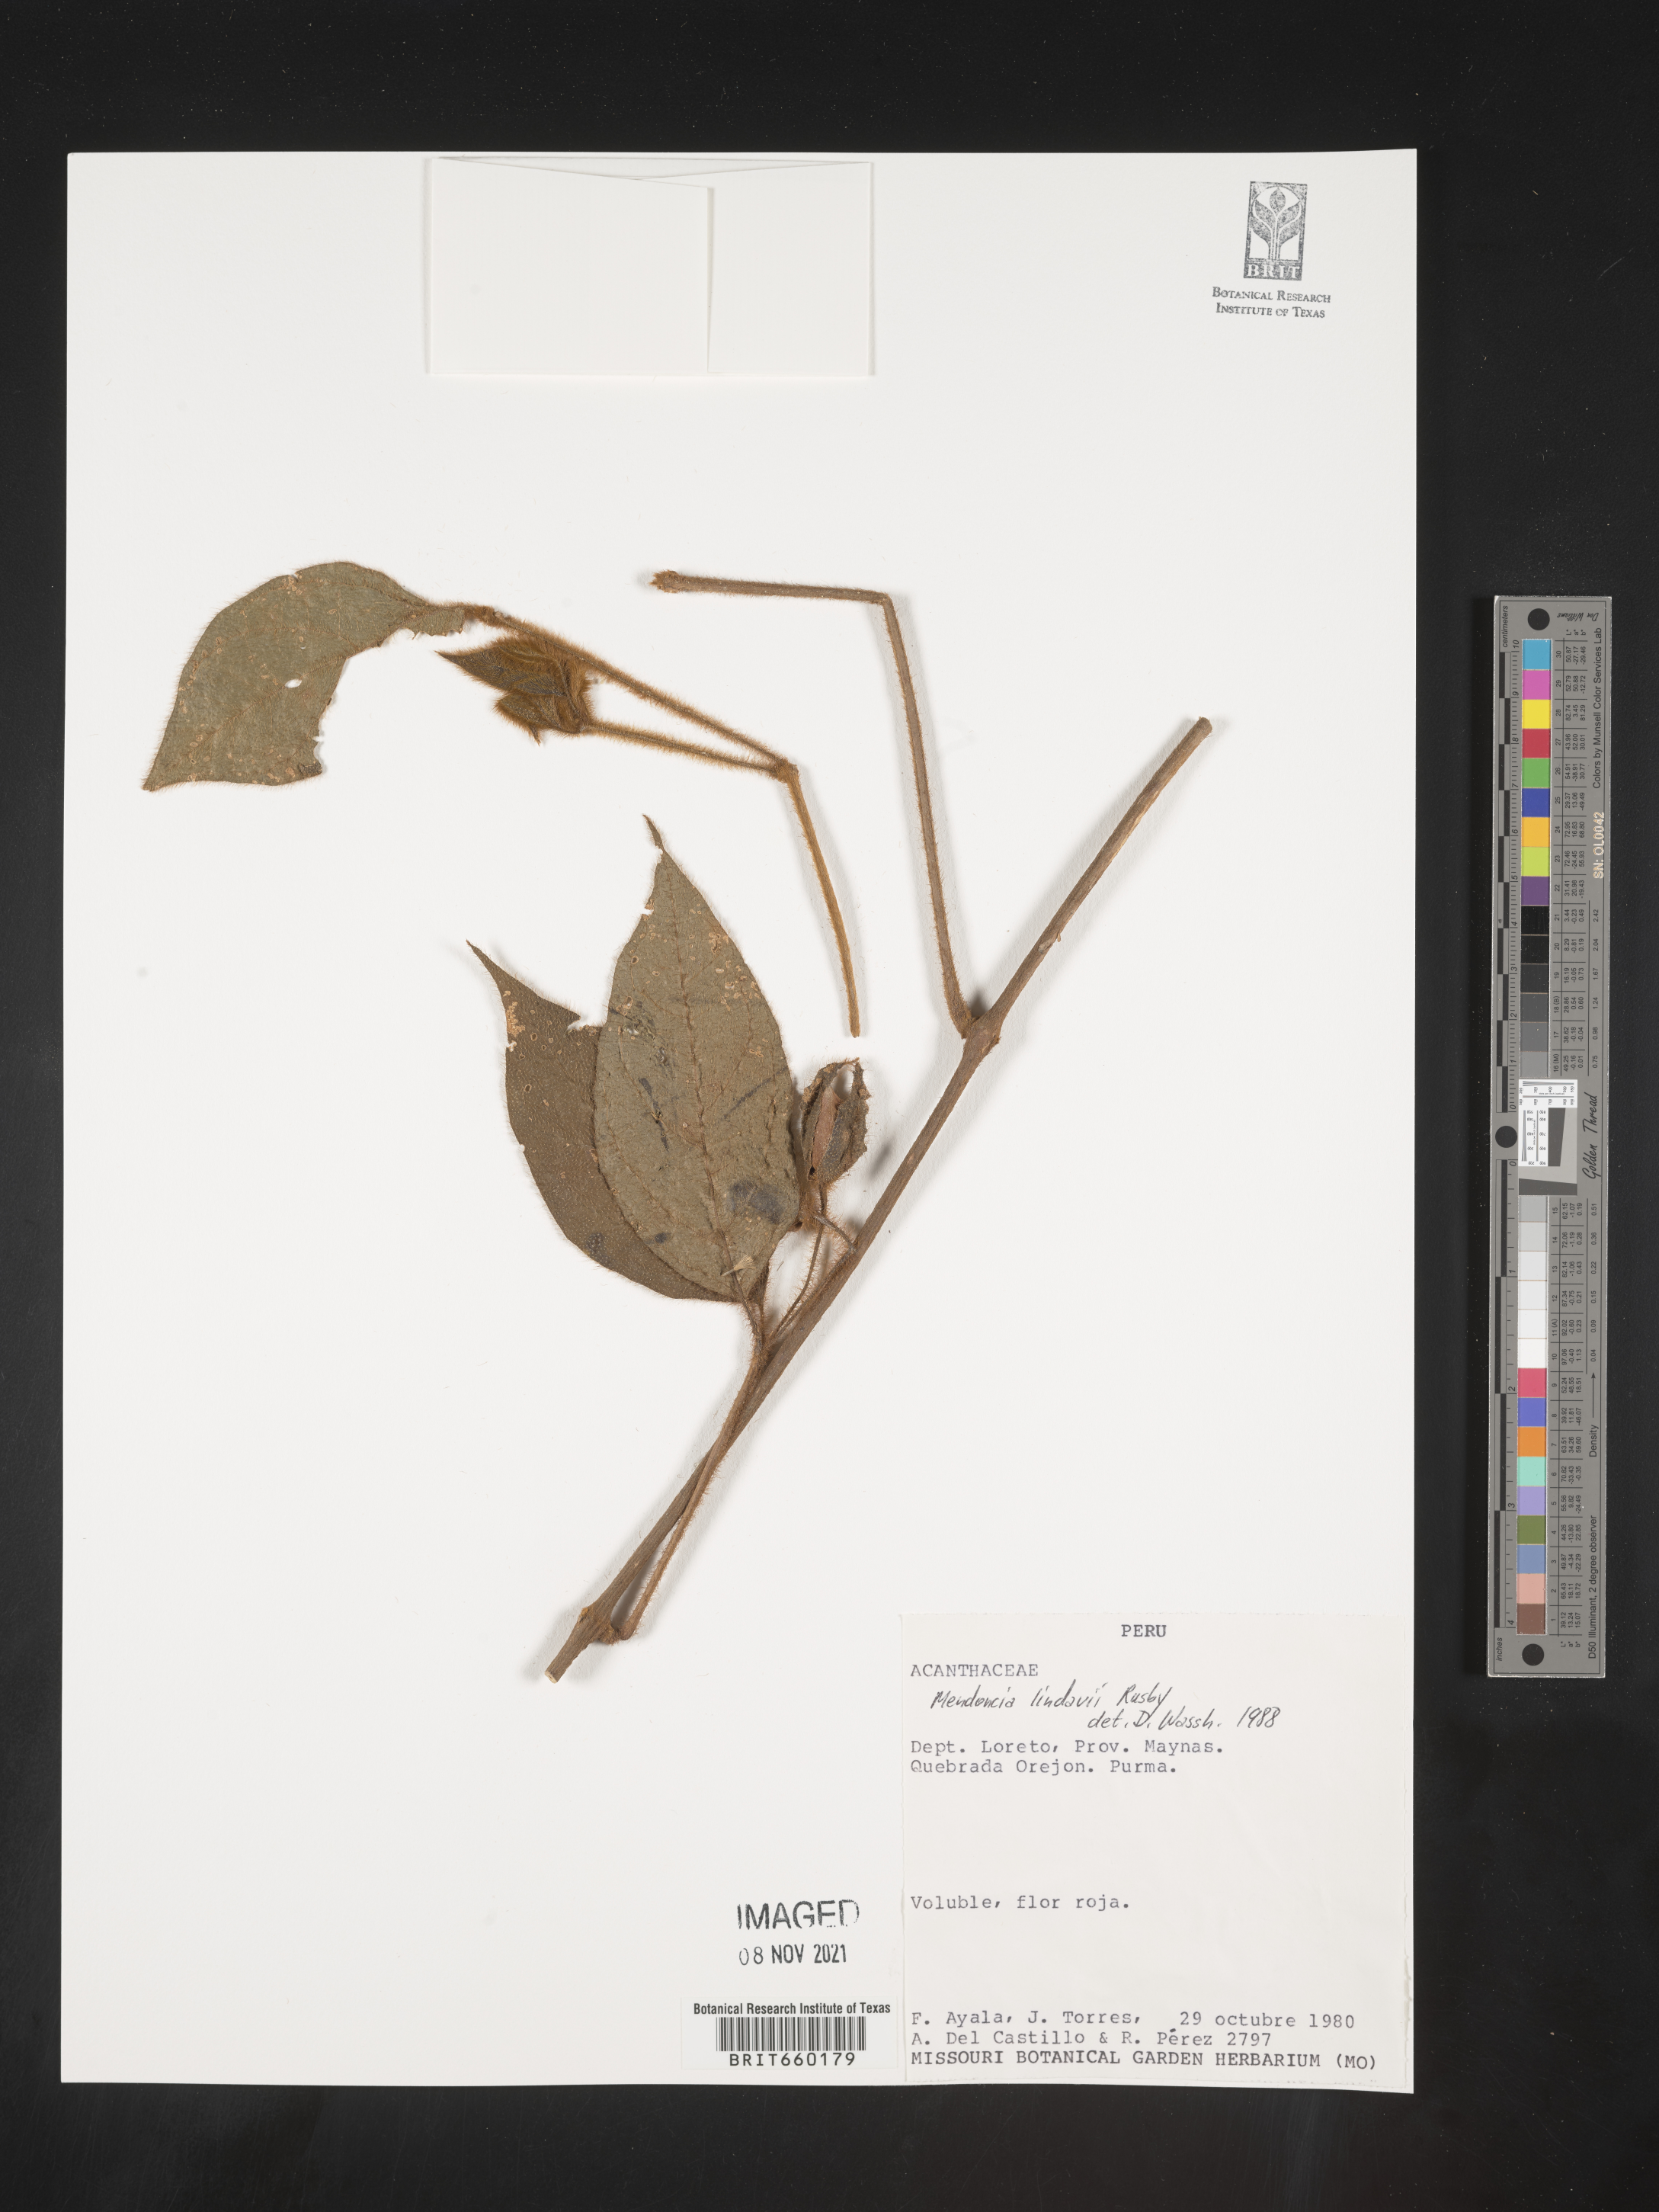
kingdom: Plantae
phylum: Tracheophyta
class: Magnoliopsida
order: Lamiales
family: Acanthaceae
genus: Mendoncia
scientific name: Mendoncia
